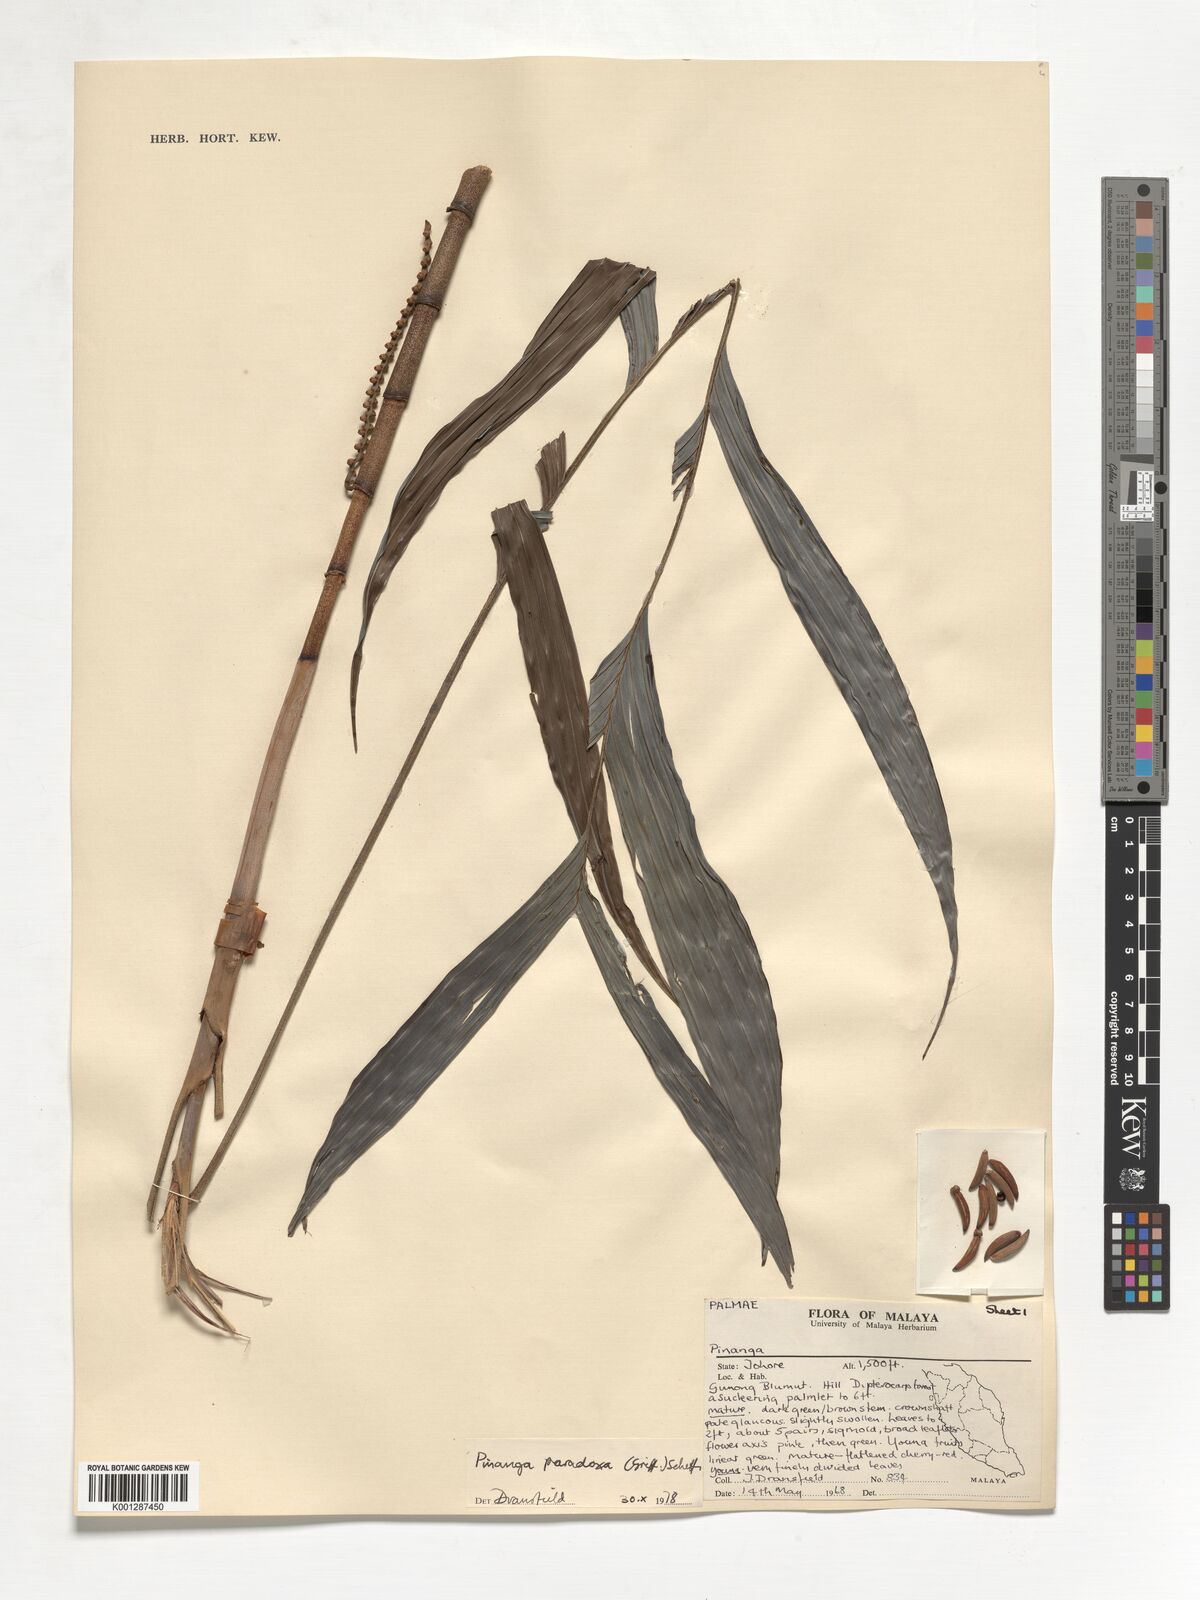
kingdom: Plantae
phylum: Tracheophyta
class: Liliopsida
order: Arecales
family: Arecaceae
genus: Pinanga
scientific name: Pinanga paradoxa
